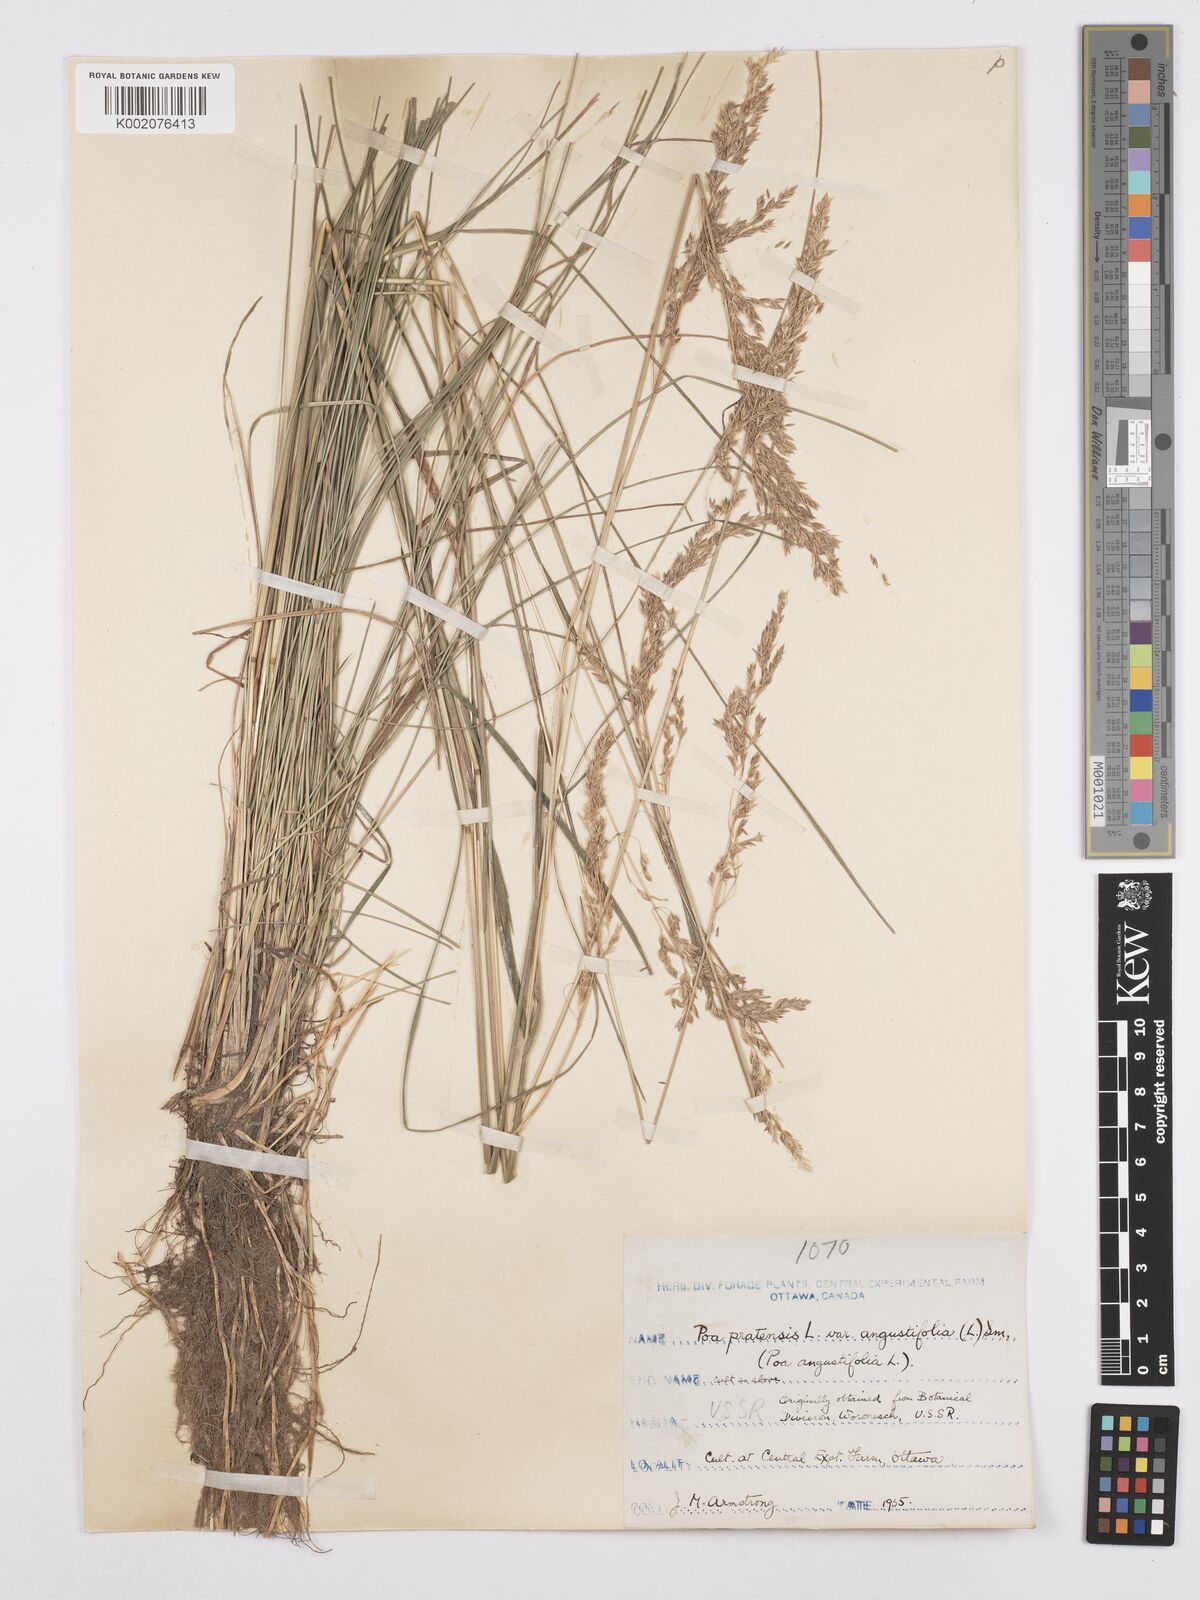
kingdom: Plantae
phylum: Tracheophyta
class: Liliopsida
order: Poales
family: Poaceae
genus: Poa
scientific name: Poa angustifolia
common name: Narrow-leaved meadow-grass
